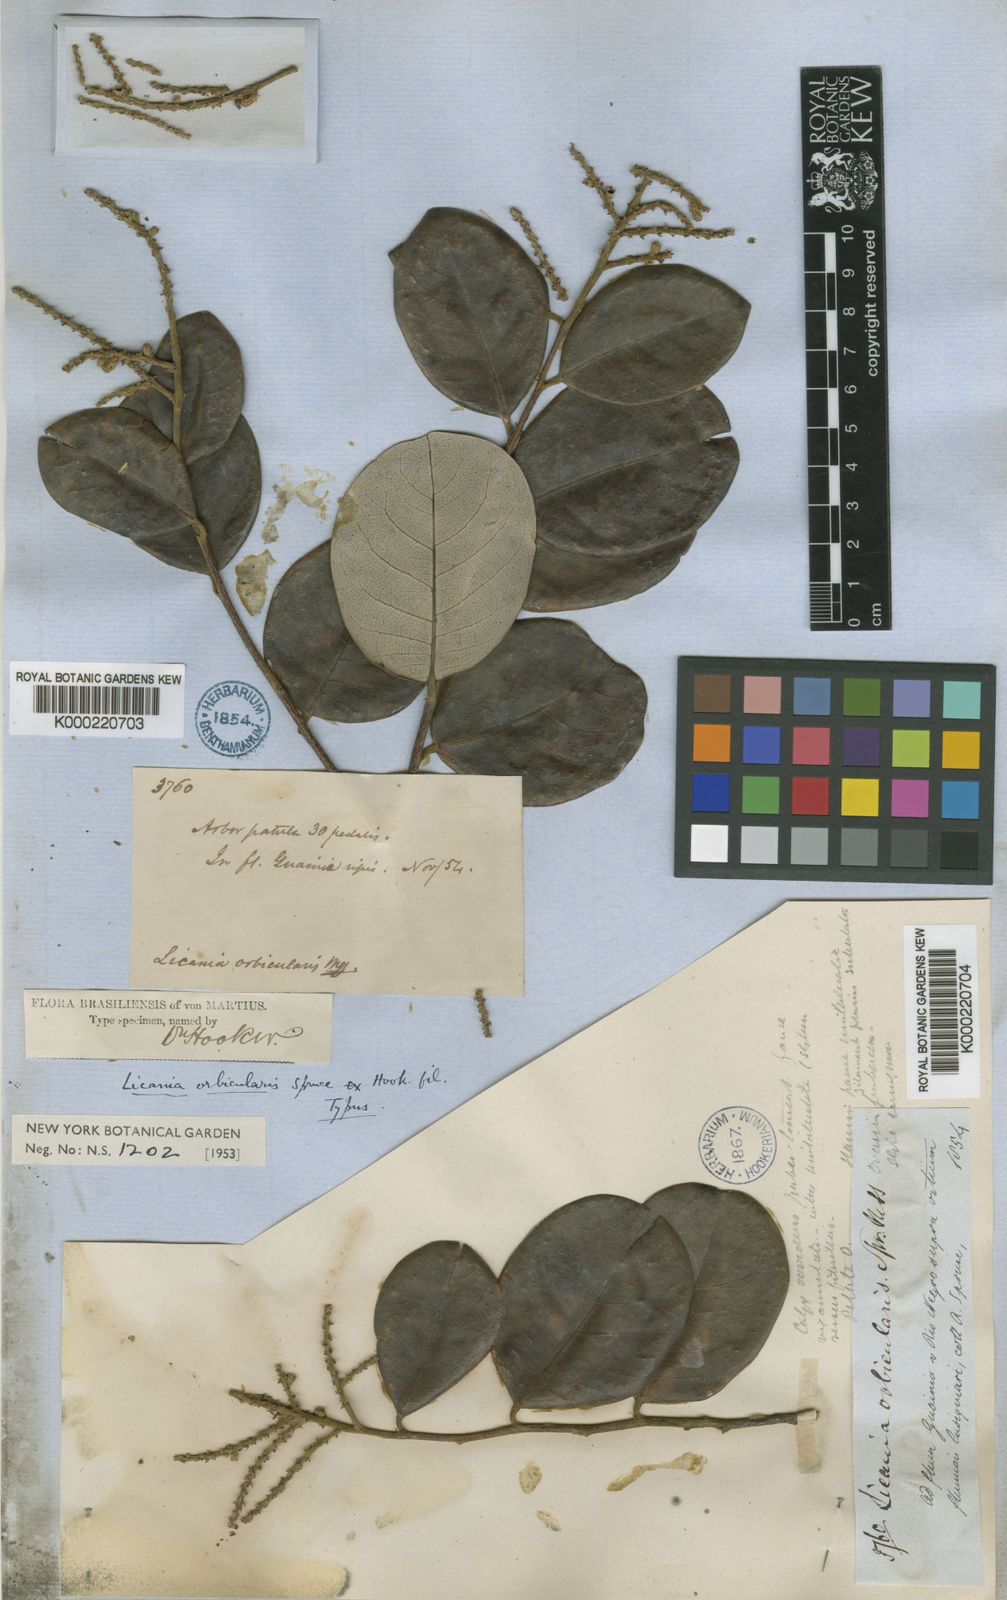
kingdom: Plantae
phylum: Tracheophyta
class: Magnoliopsida
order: Malpighiales
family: Chrysobalanaceae
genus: Licania
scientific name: Licania orbicularis
